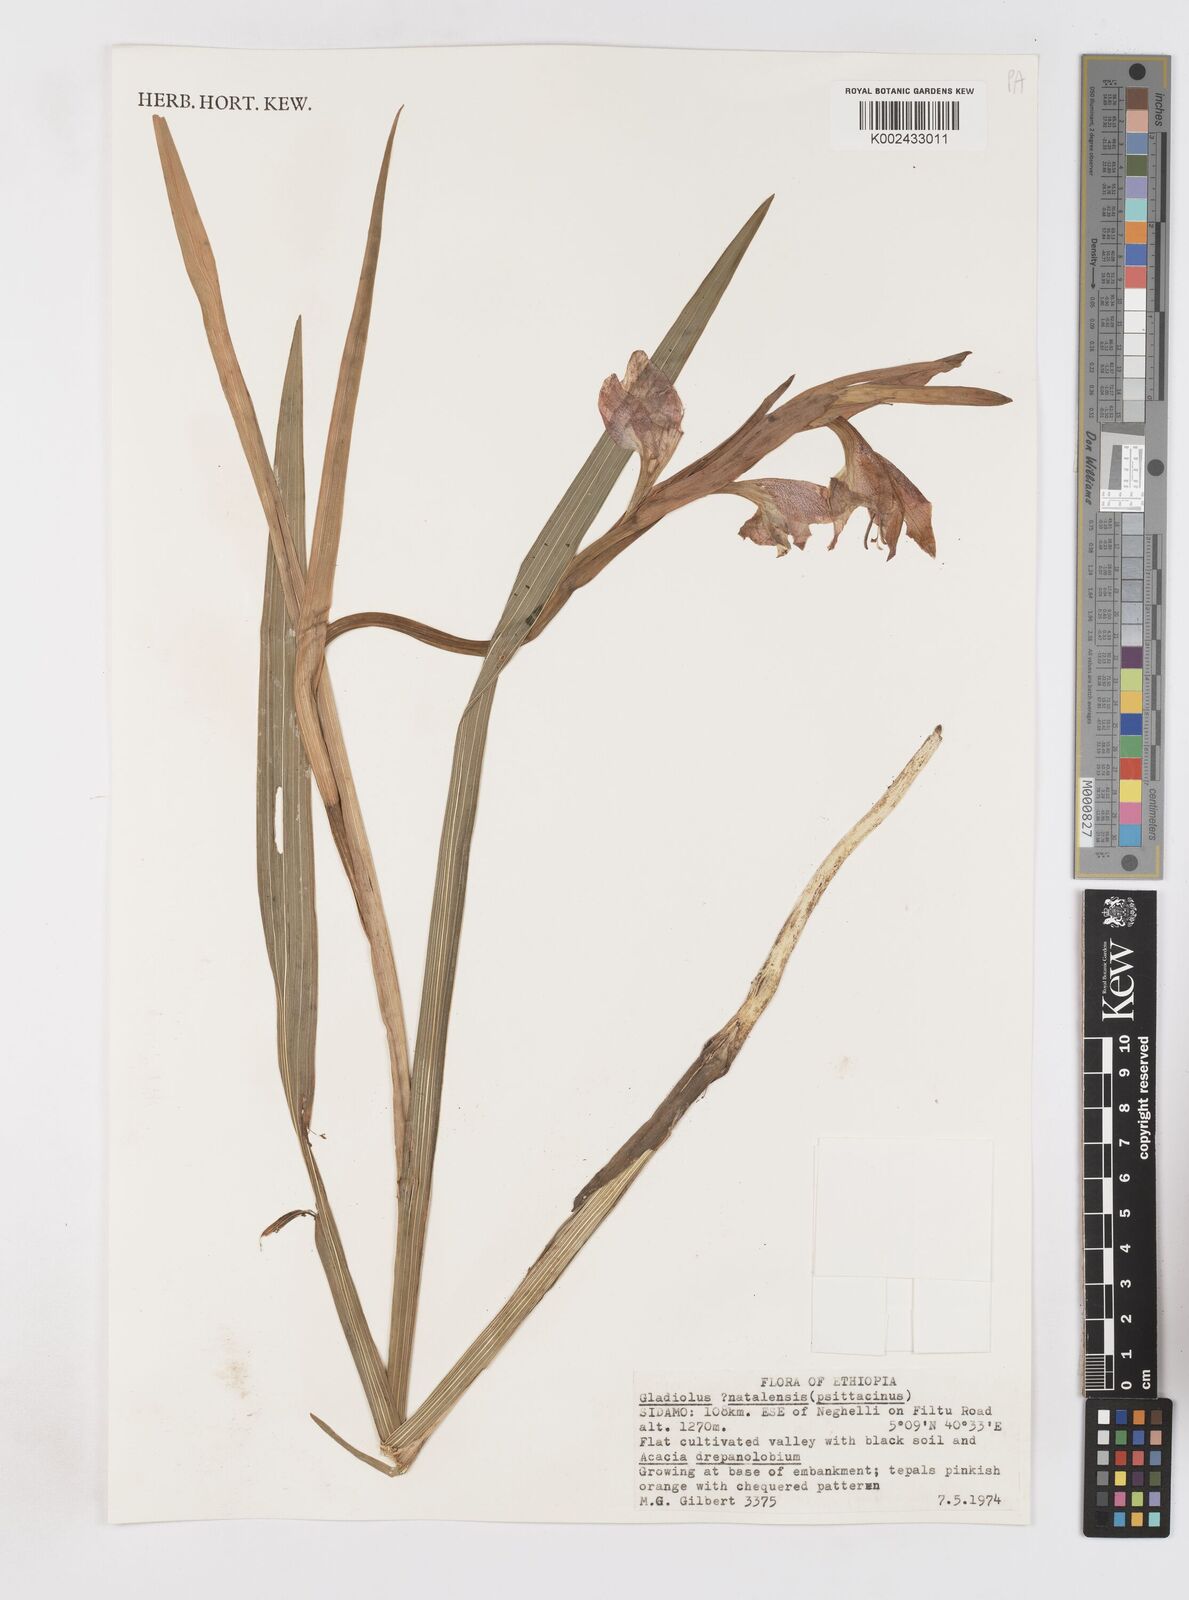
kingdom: Plantae
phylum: Tracheophyta
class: Liliopsida
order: Asparagales
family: Iridaceae
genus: Gladiolus
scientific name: Gladiolus dalenii
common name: Cornflag
